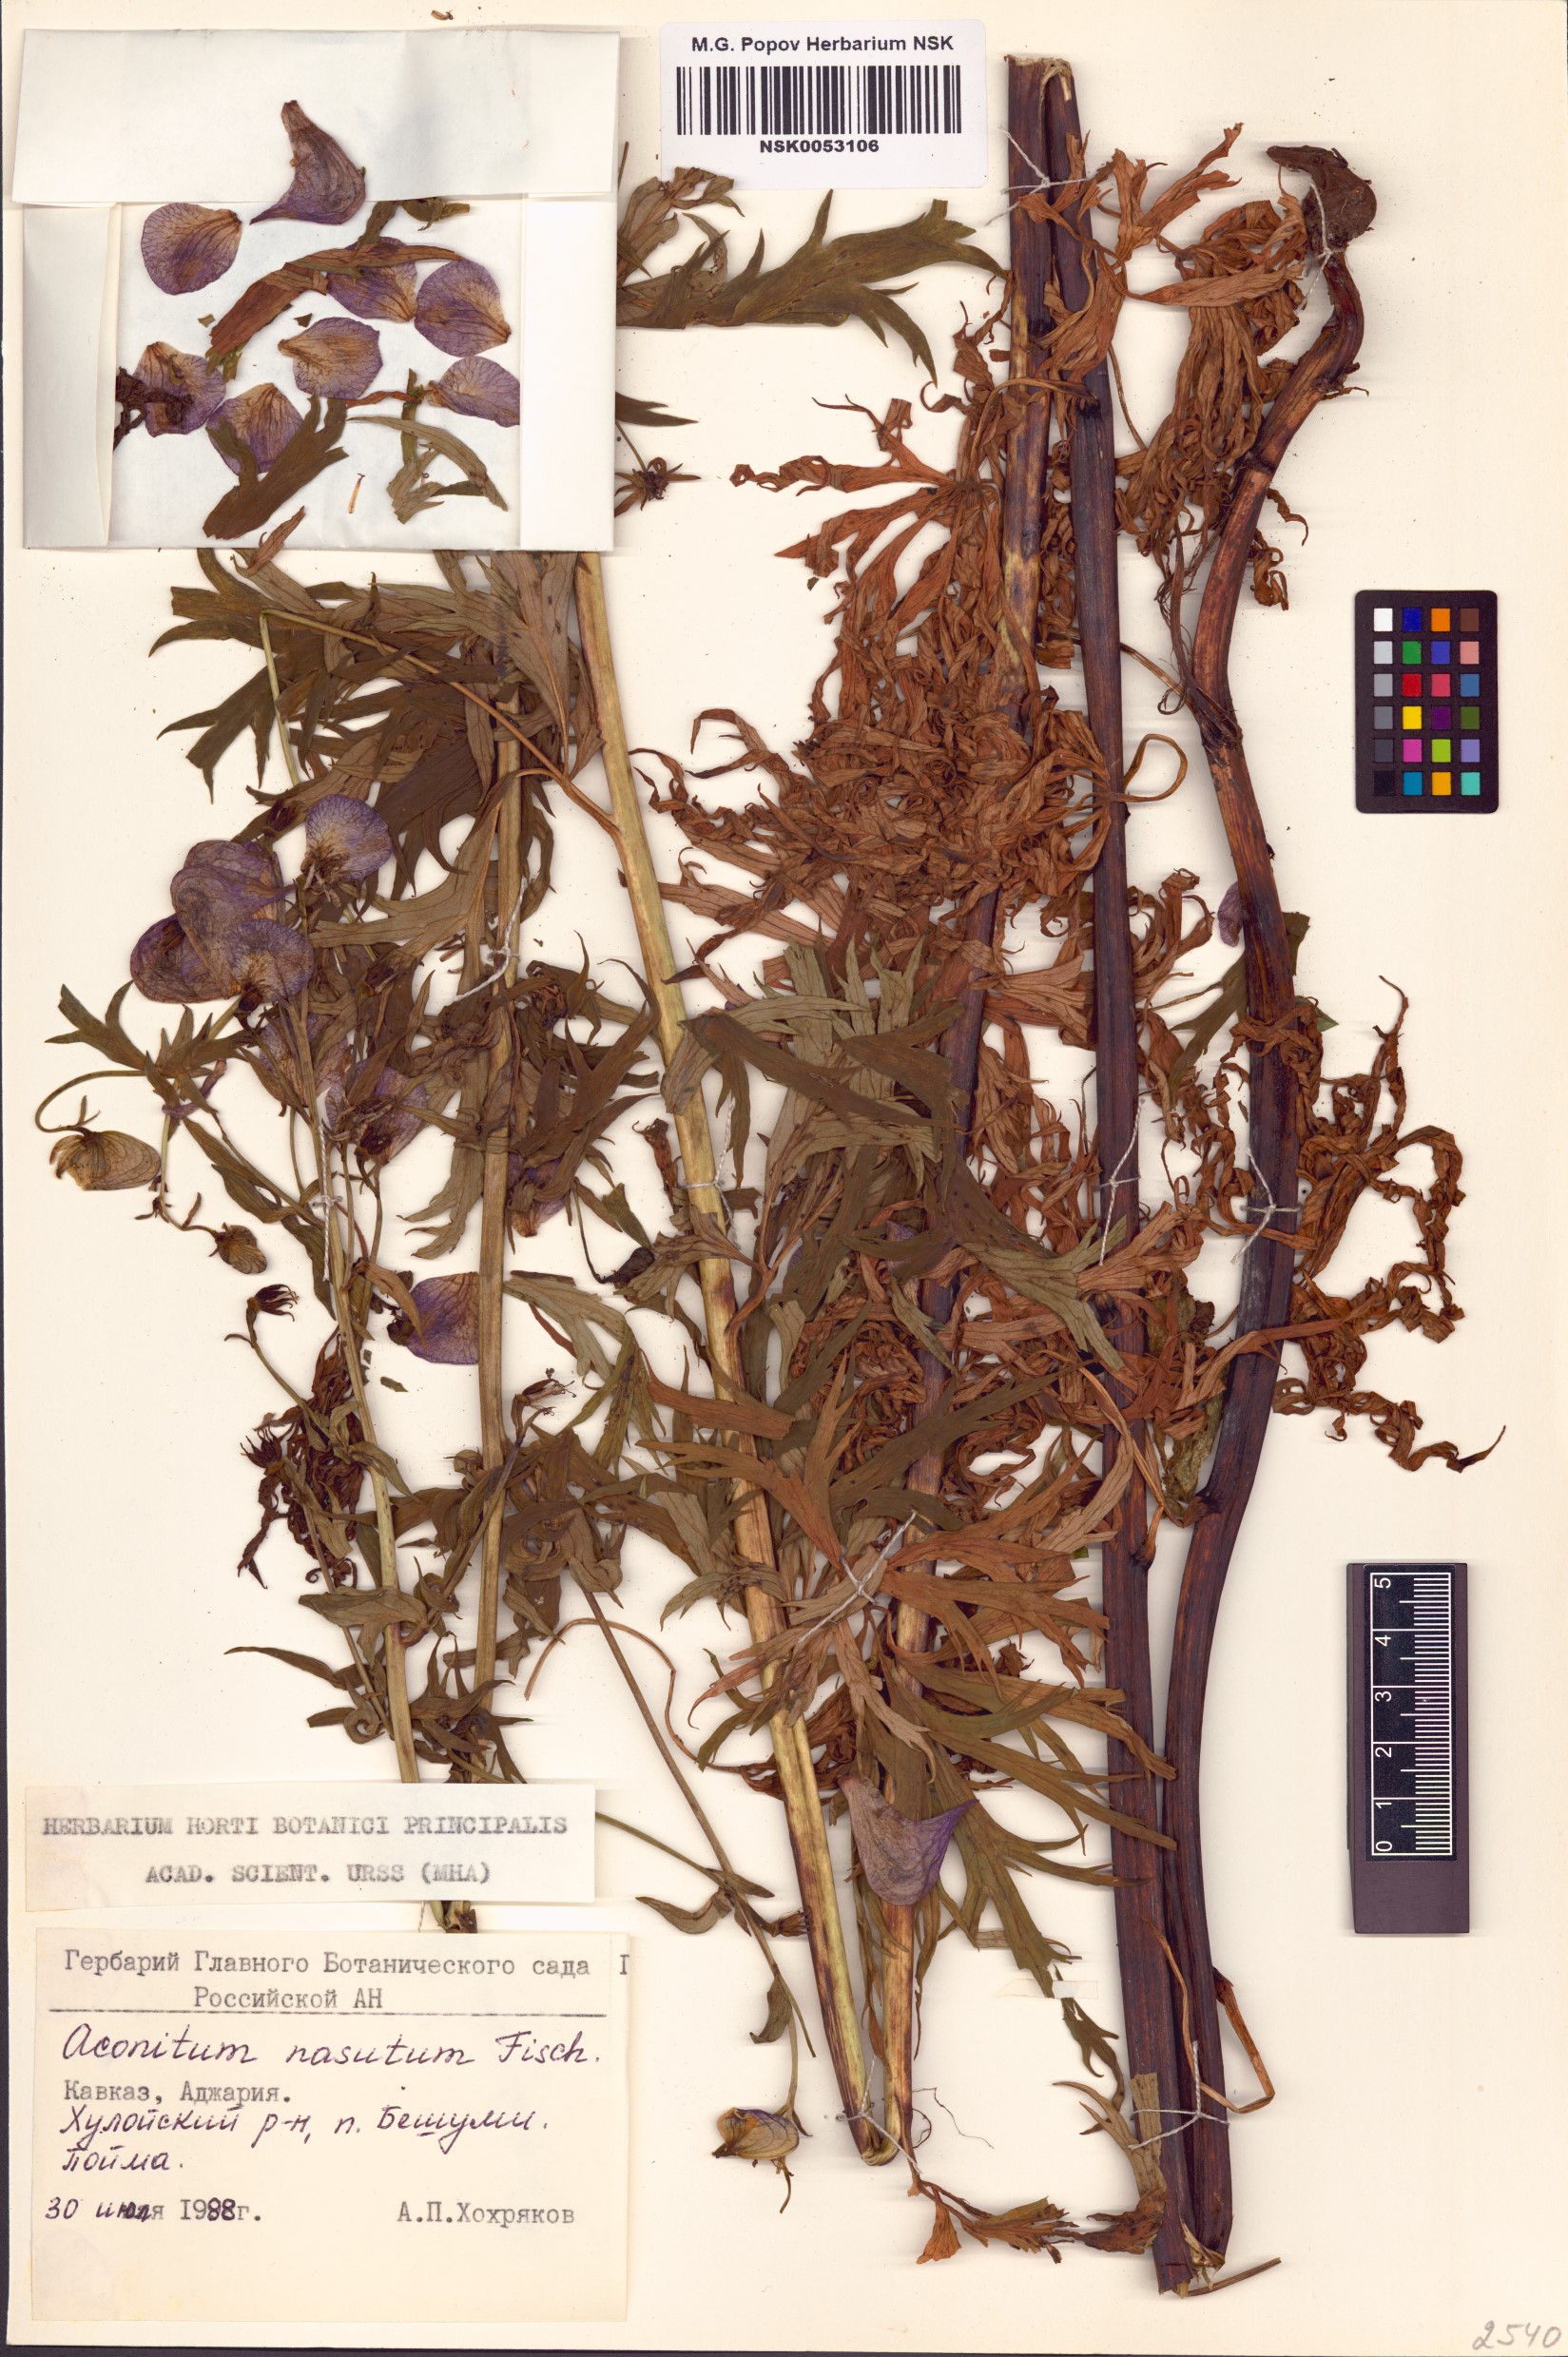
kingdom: Plantae
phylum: Tracheophyta
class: Magnoliopsida
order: Ranunculales
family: Ranunculaceae
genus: Aconitum
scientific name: Aconitum variegatum
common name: Manchurian monkshood
